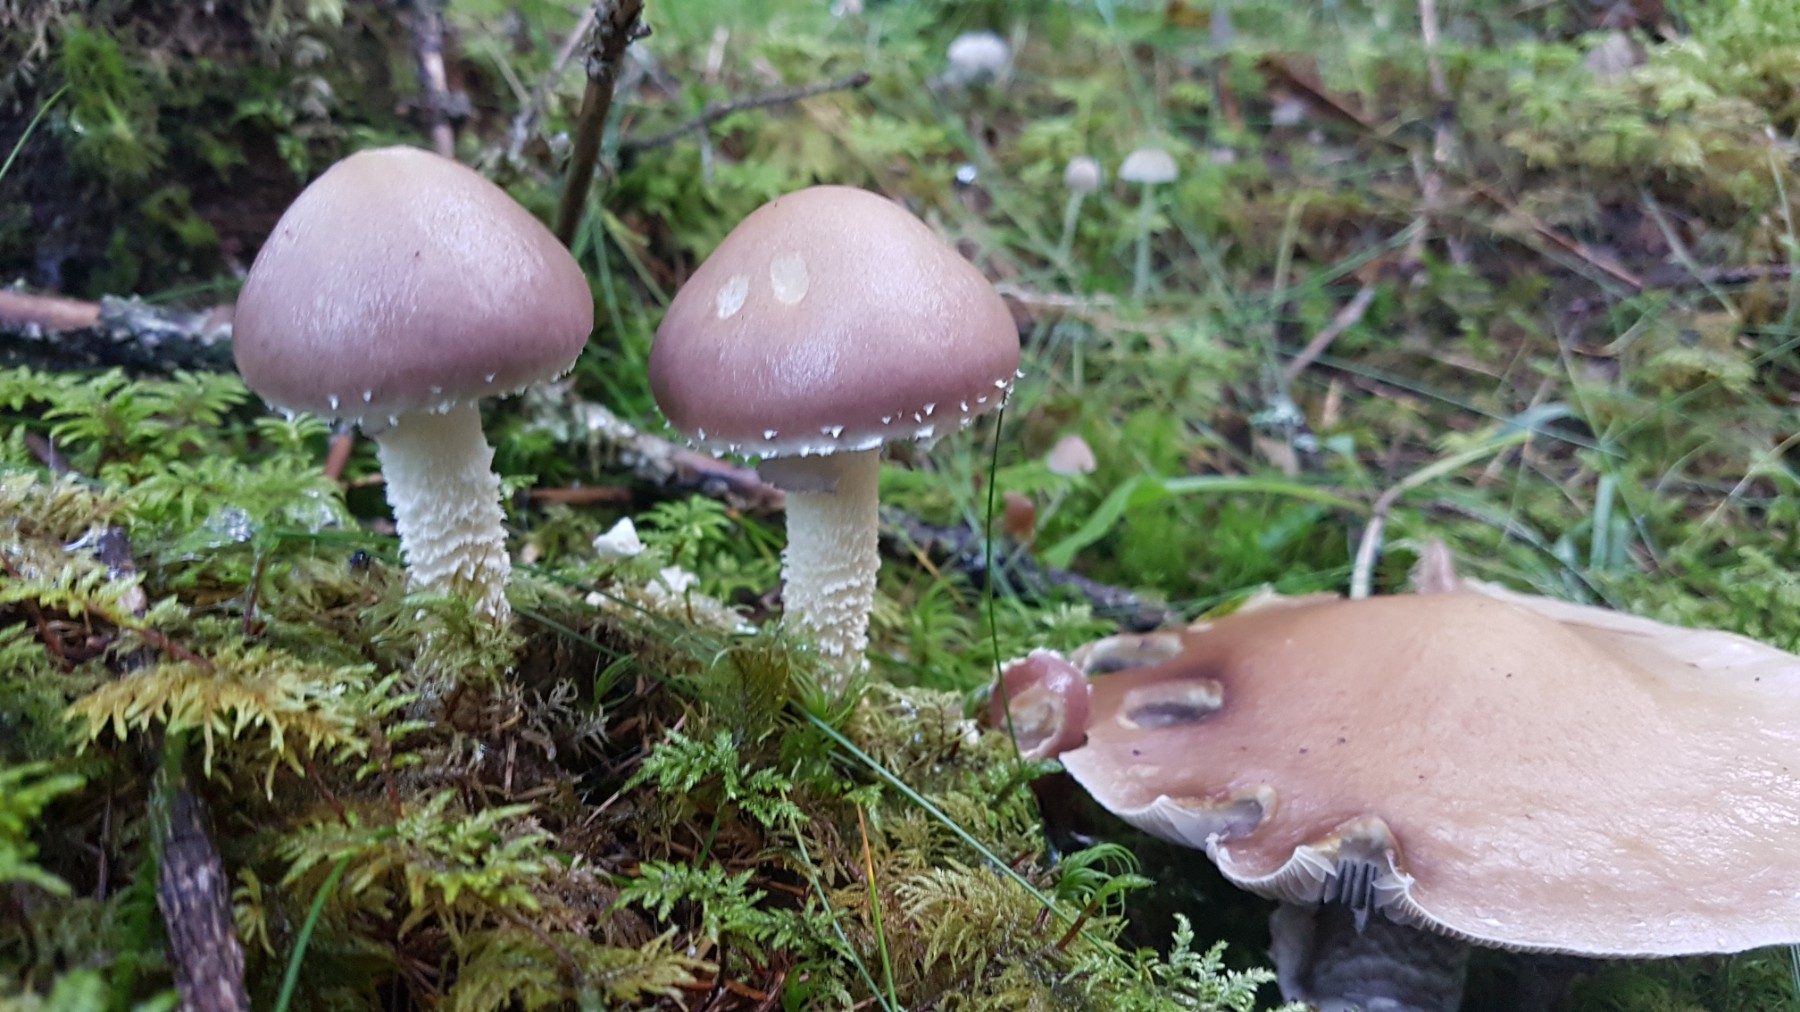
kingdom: Fungi
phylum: Basidiomycota
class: Agaricomycetes
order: Agaricales
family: Strophariaceae
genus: Stropharia
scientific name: Stropharia hornemannii
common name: nordisk bredblad
